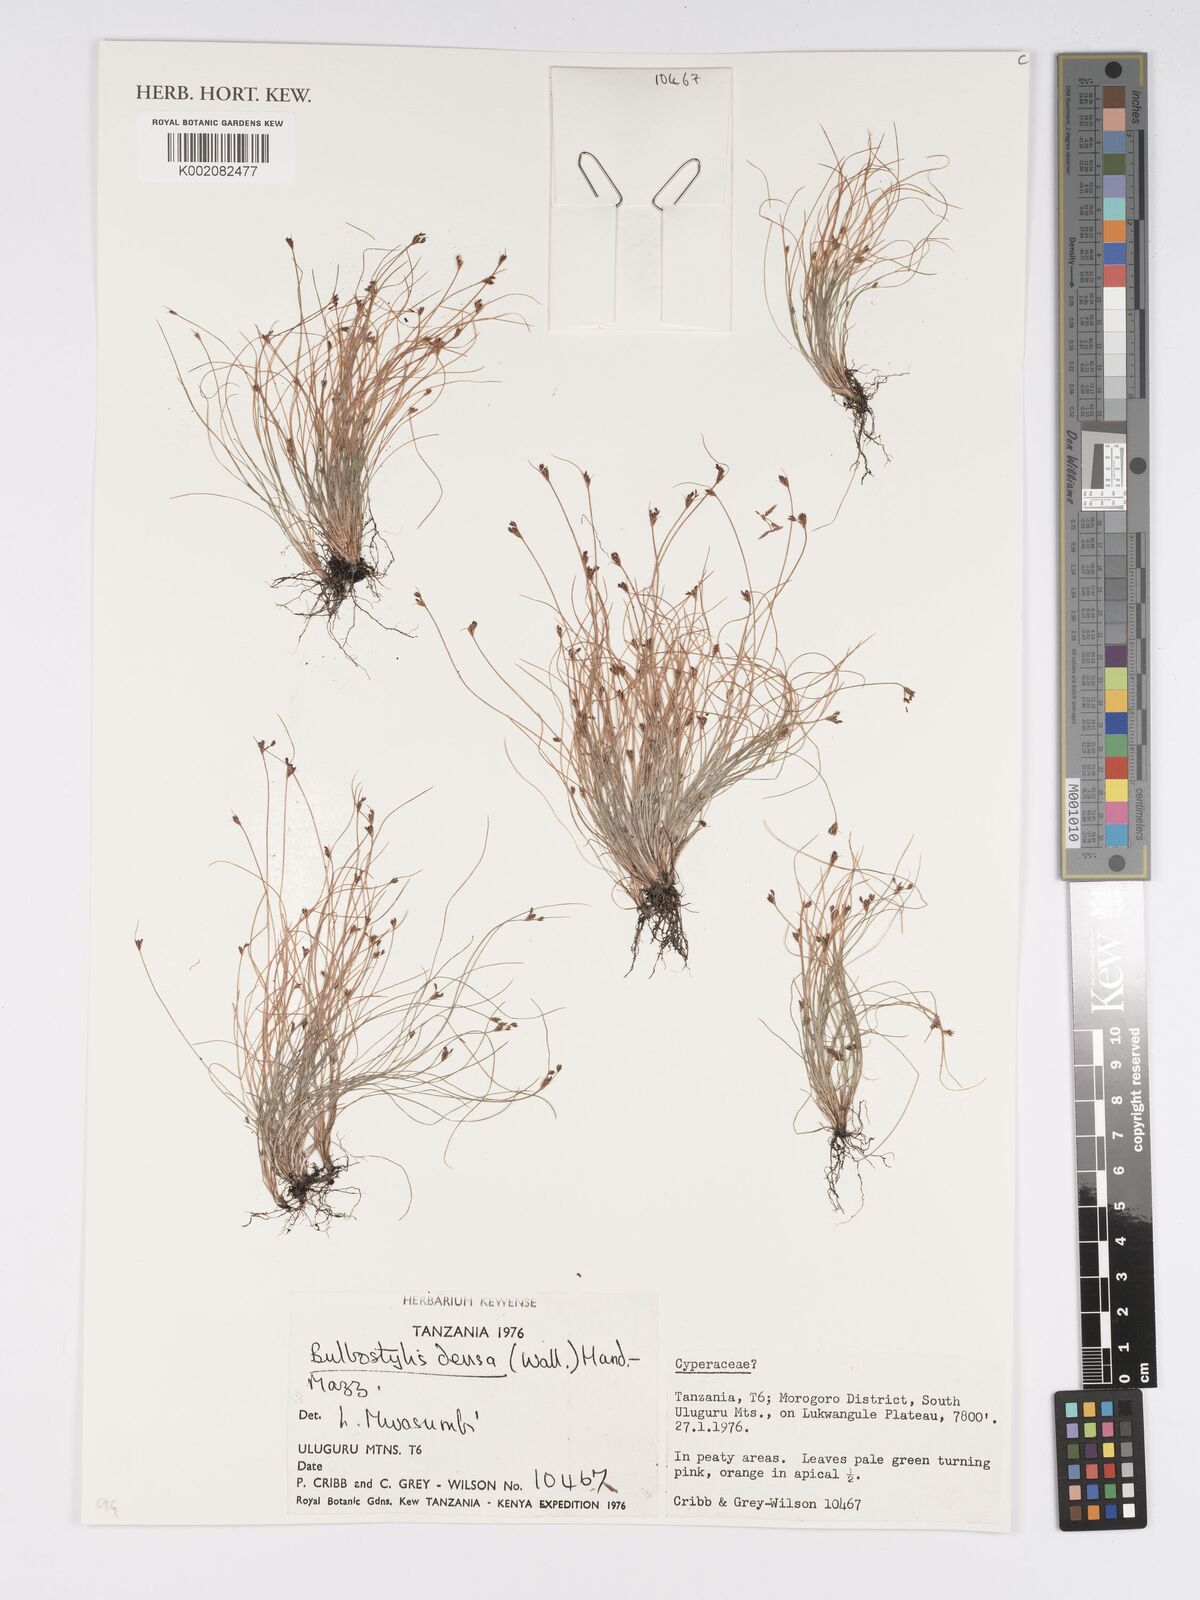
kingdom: Plantae
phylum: Tracheophyta
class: Liliopsida
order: Poales
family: Cyperaceae
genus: Bulbostylis
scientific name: Bulbostylis densa
